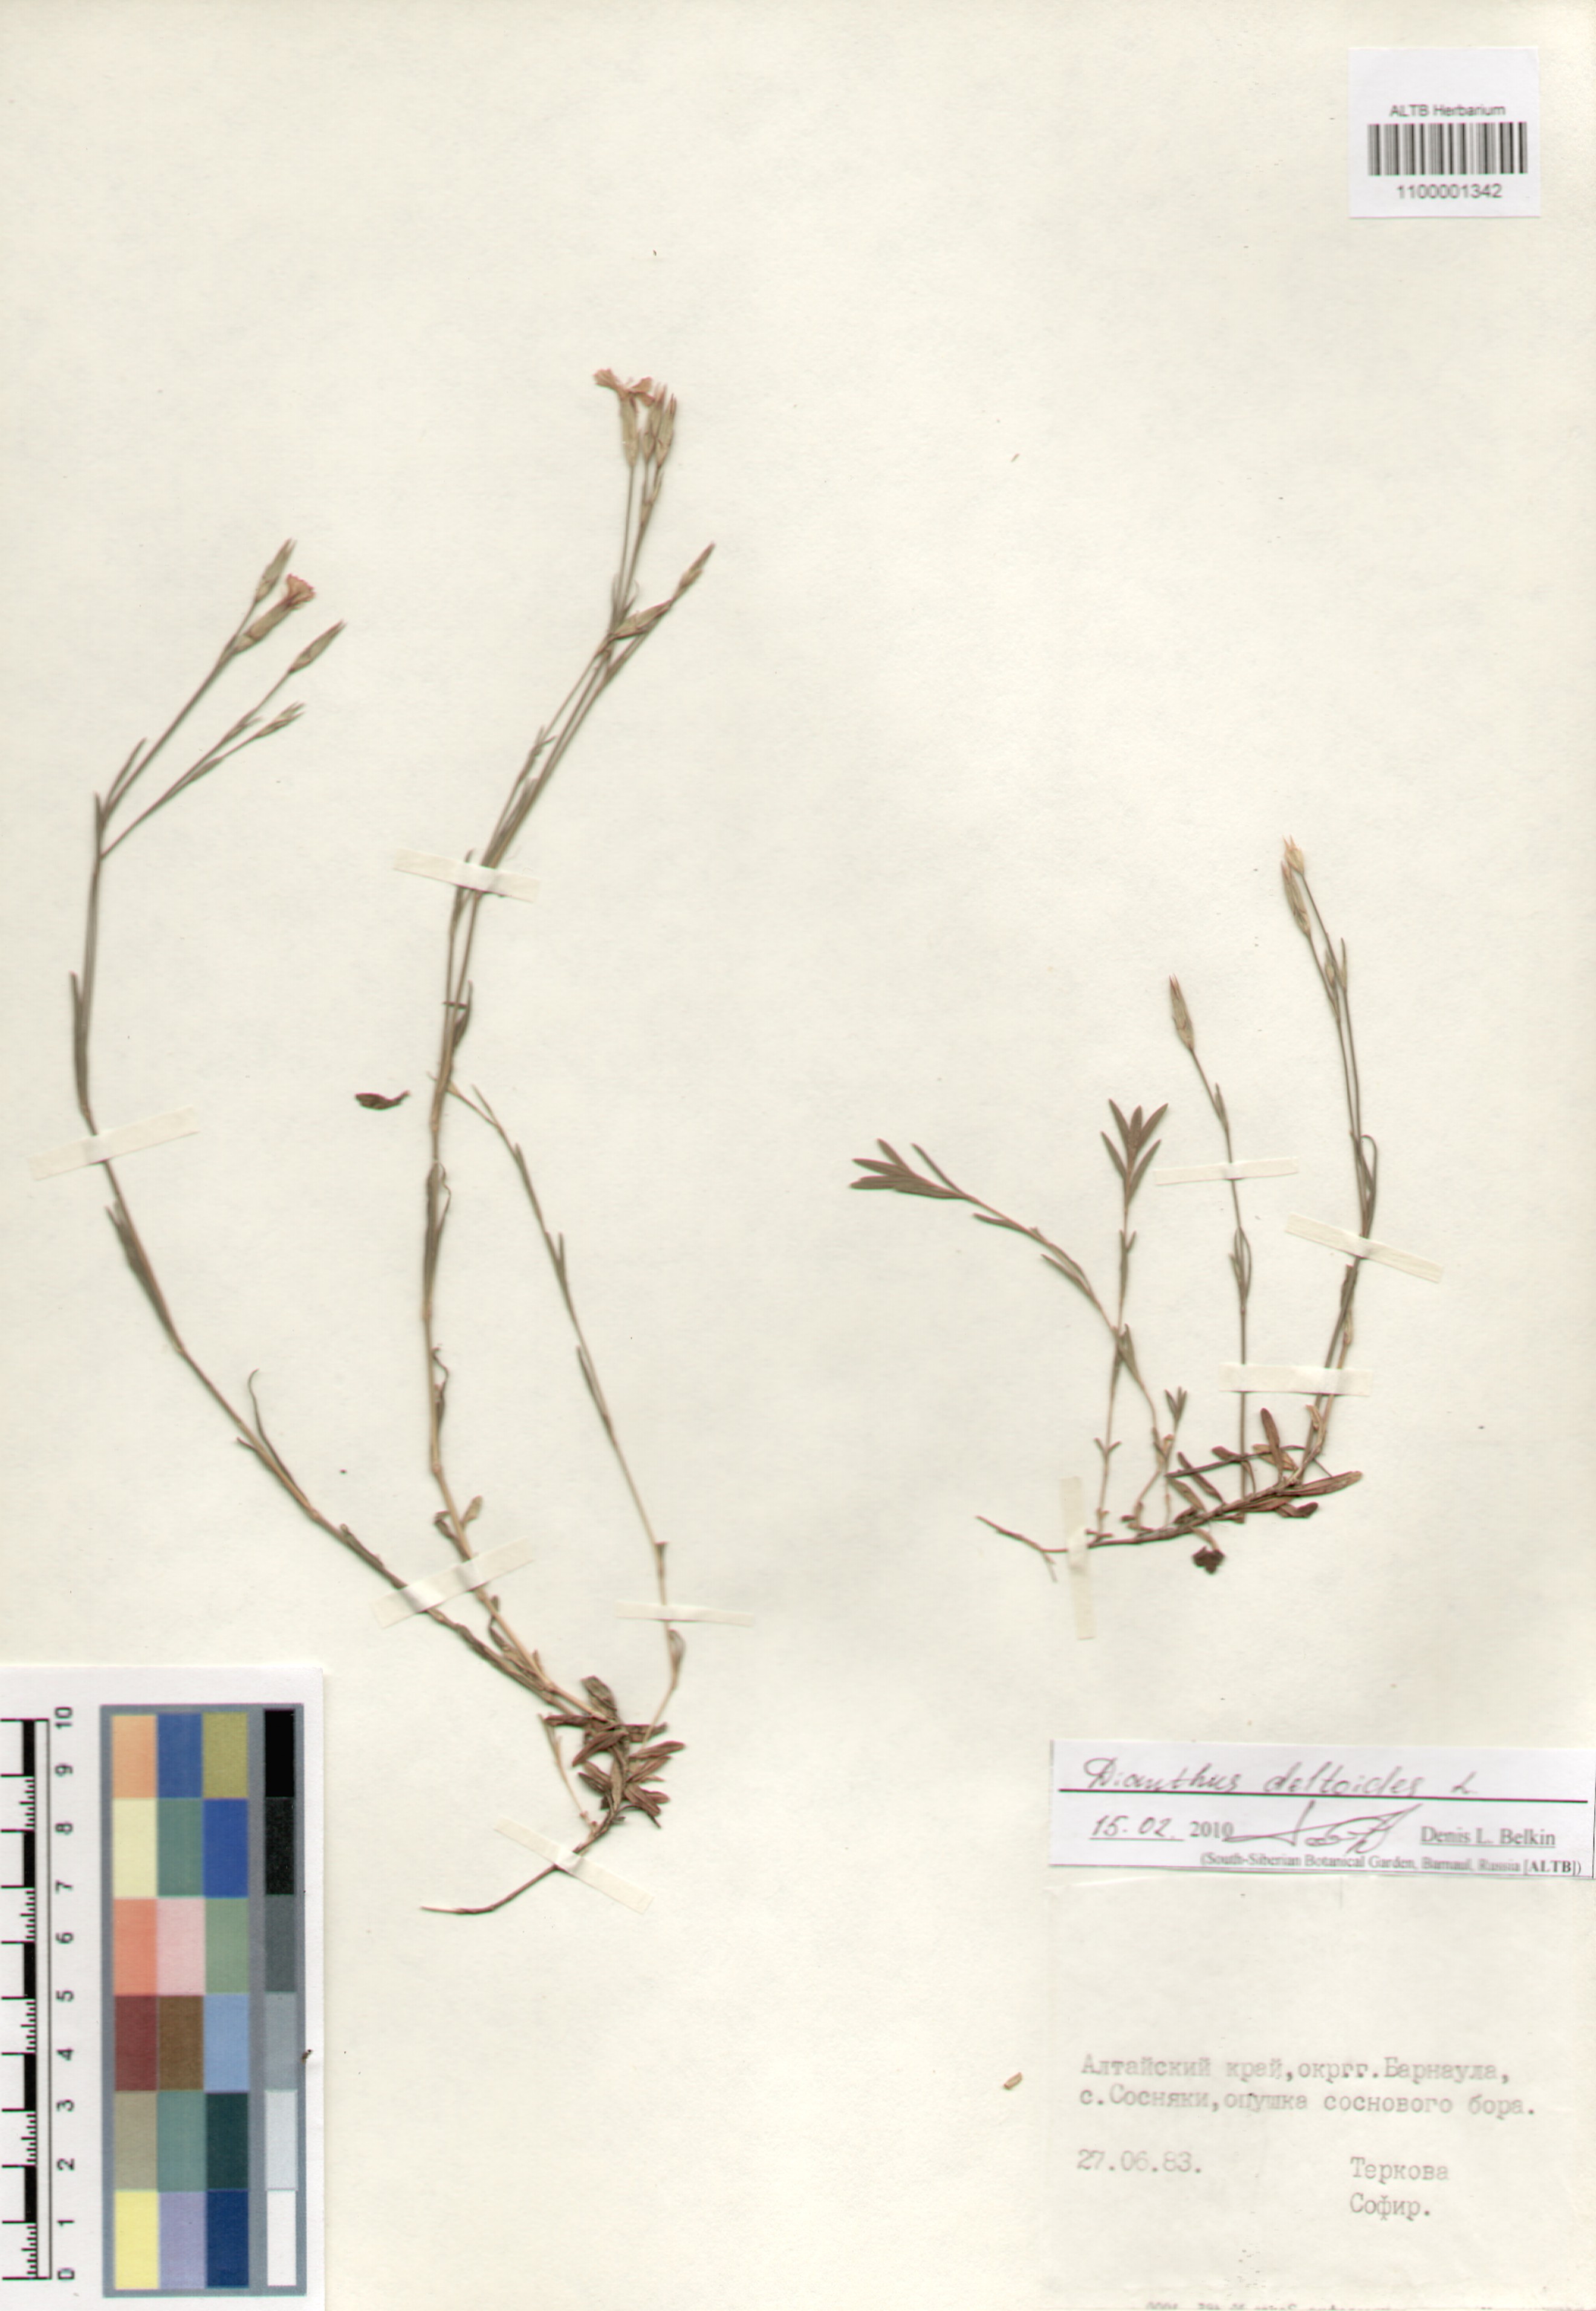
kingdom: Plantae
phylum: Tracheophyta
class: Magnoliopsida
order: Caryophyllales
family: Caryophyllaceae
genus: Dianthus
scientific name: Dianthus deltoides
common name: Maiden pink
